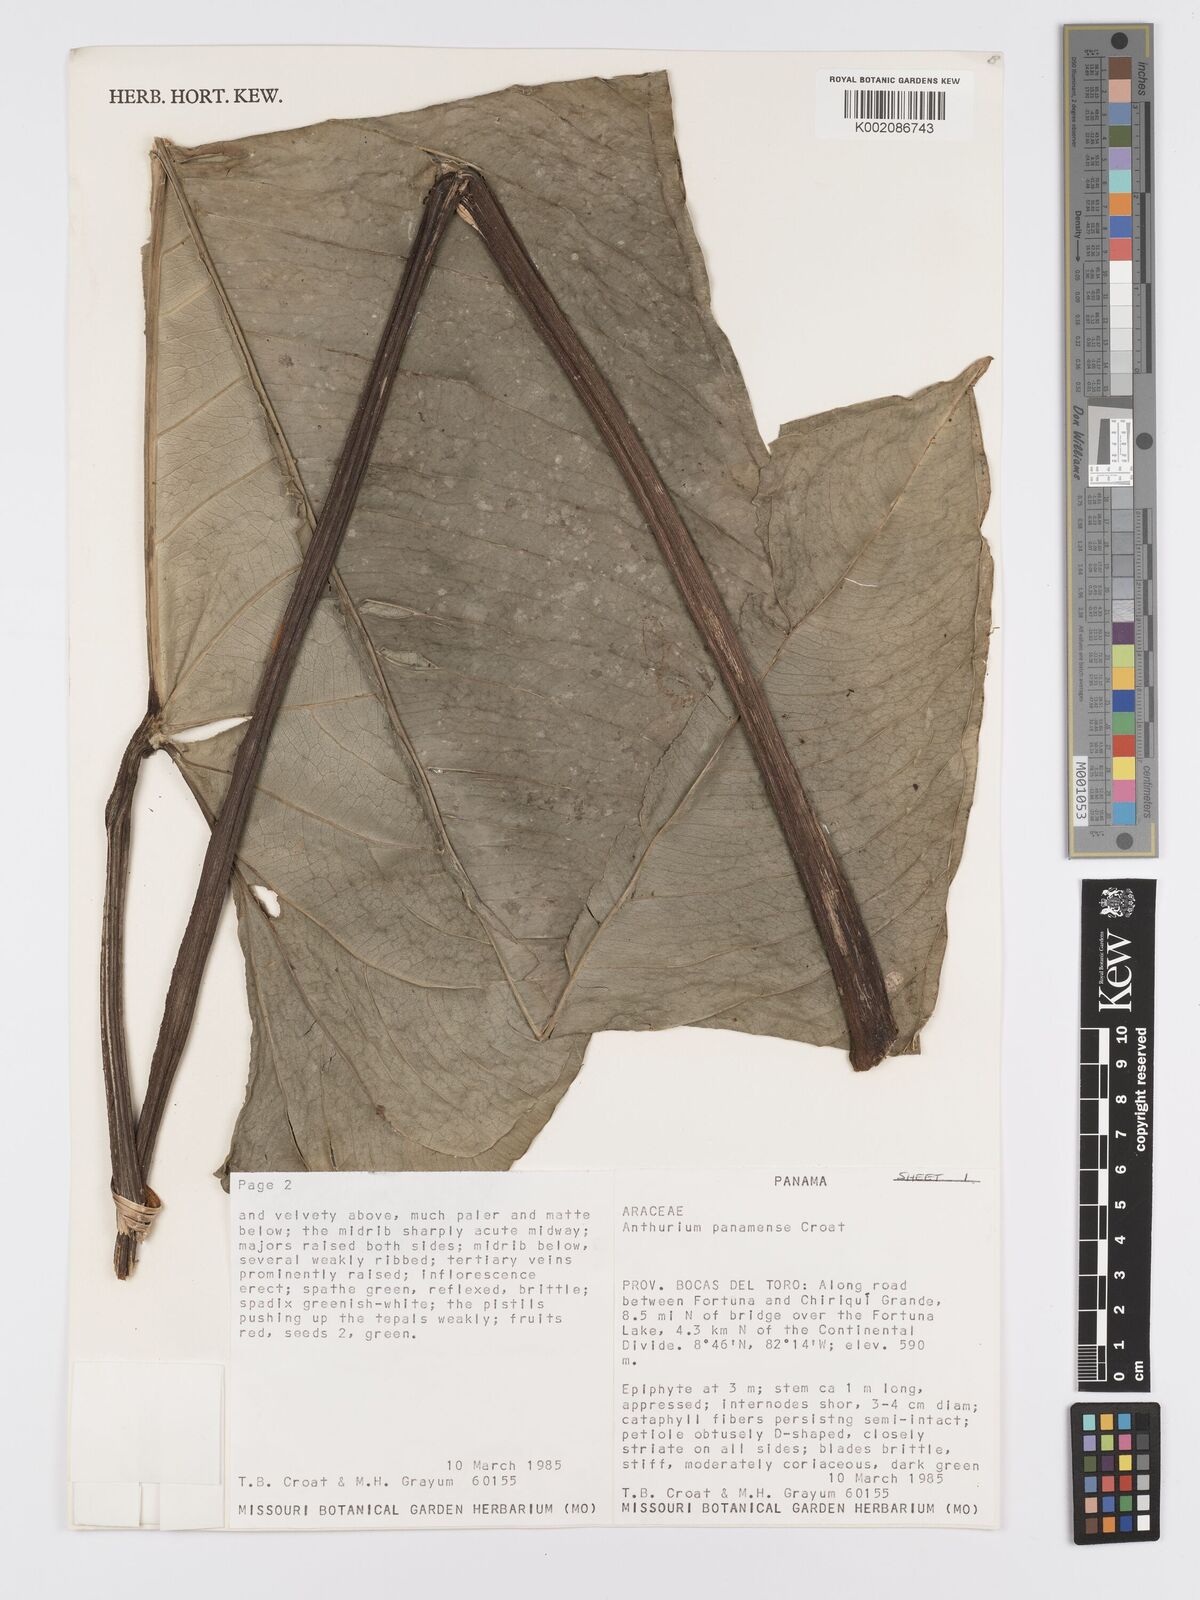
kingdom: Plantae
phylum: Tracheophyta
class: Liliopsida
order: Alismatales
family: Araceae
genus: Anthurium
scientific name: Anthurium panamense
